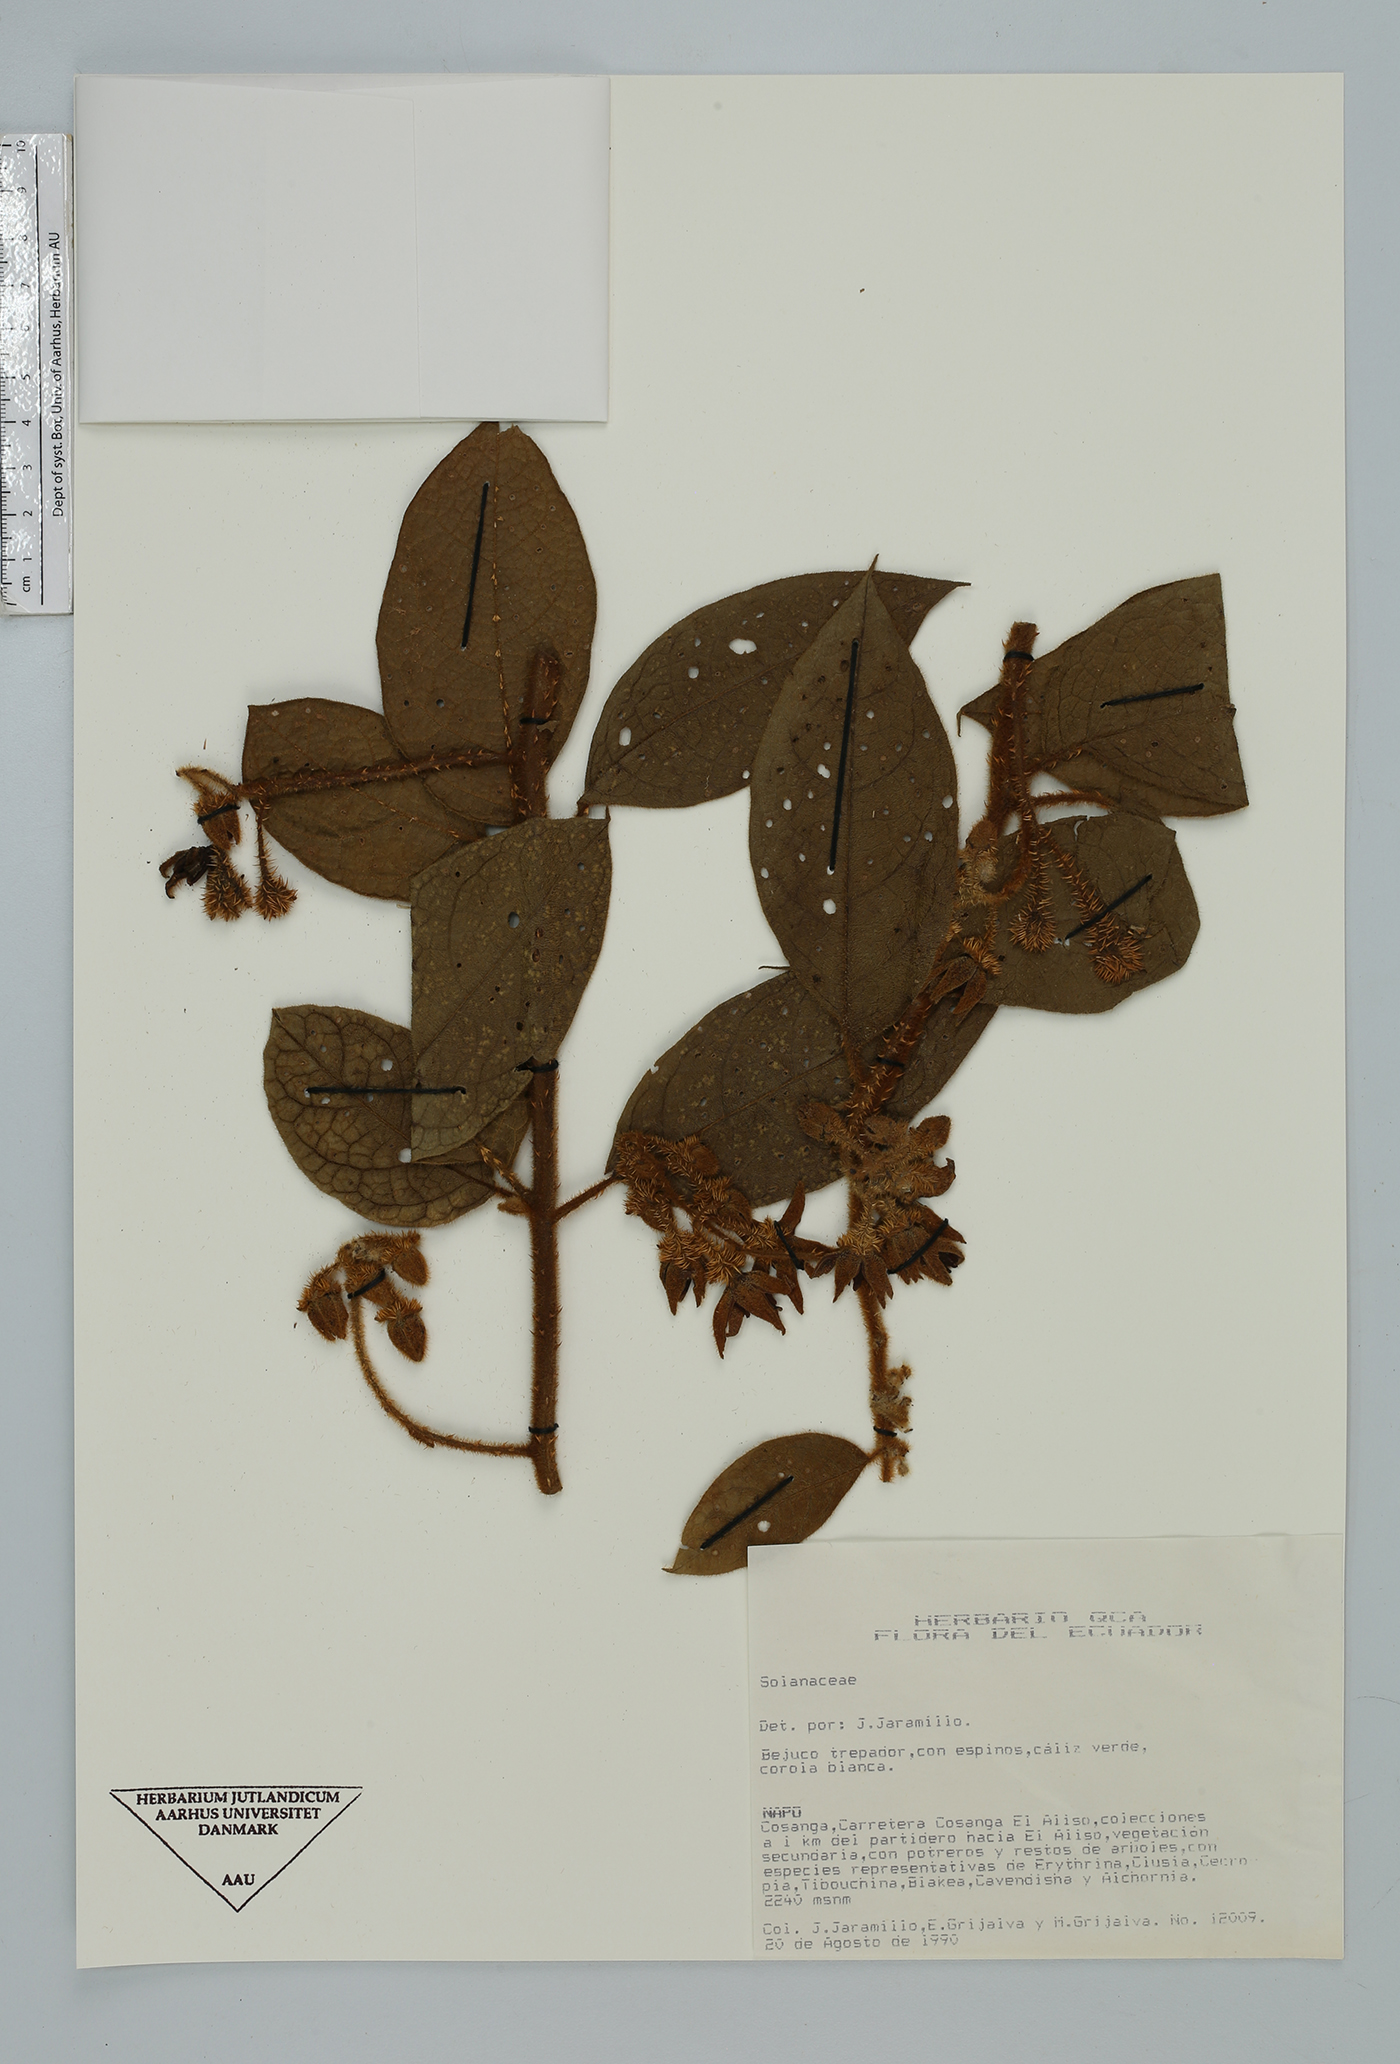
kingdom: Plantae
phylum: Tracheophyta
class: Magnoliopsida
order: Solanales
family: Solanaceae
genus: Solanum
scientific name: Solanum
